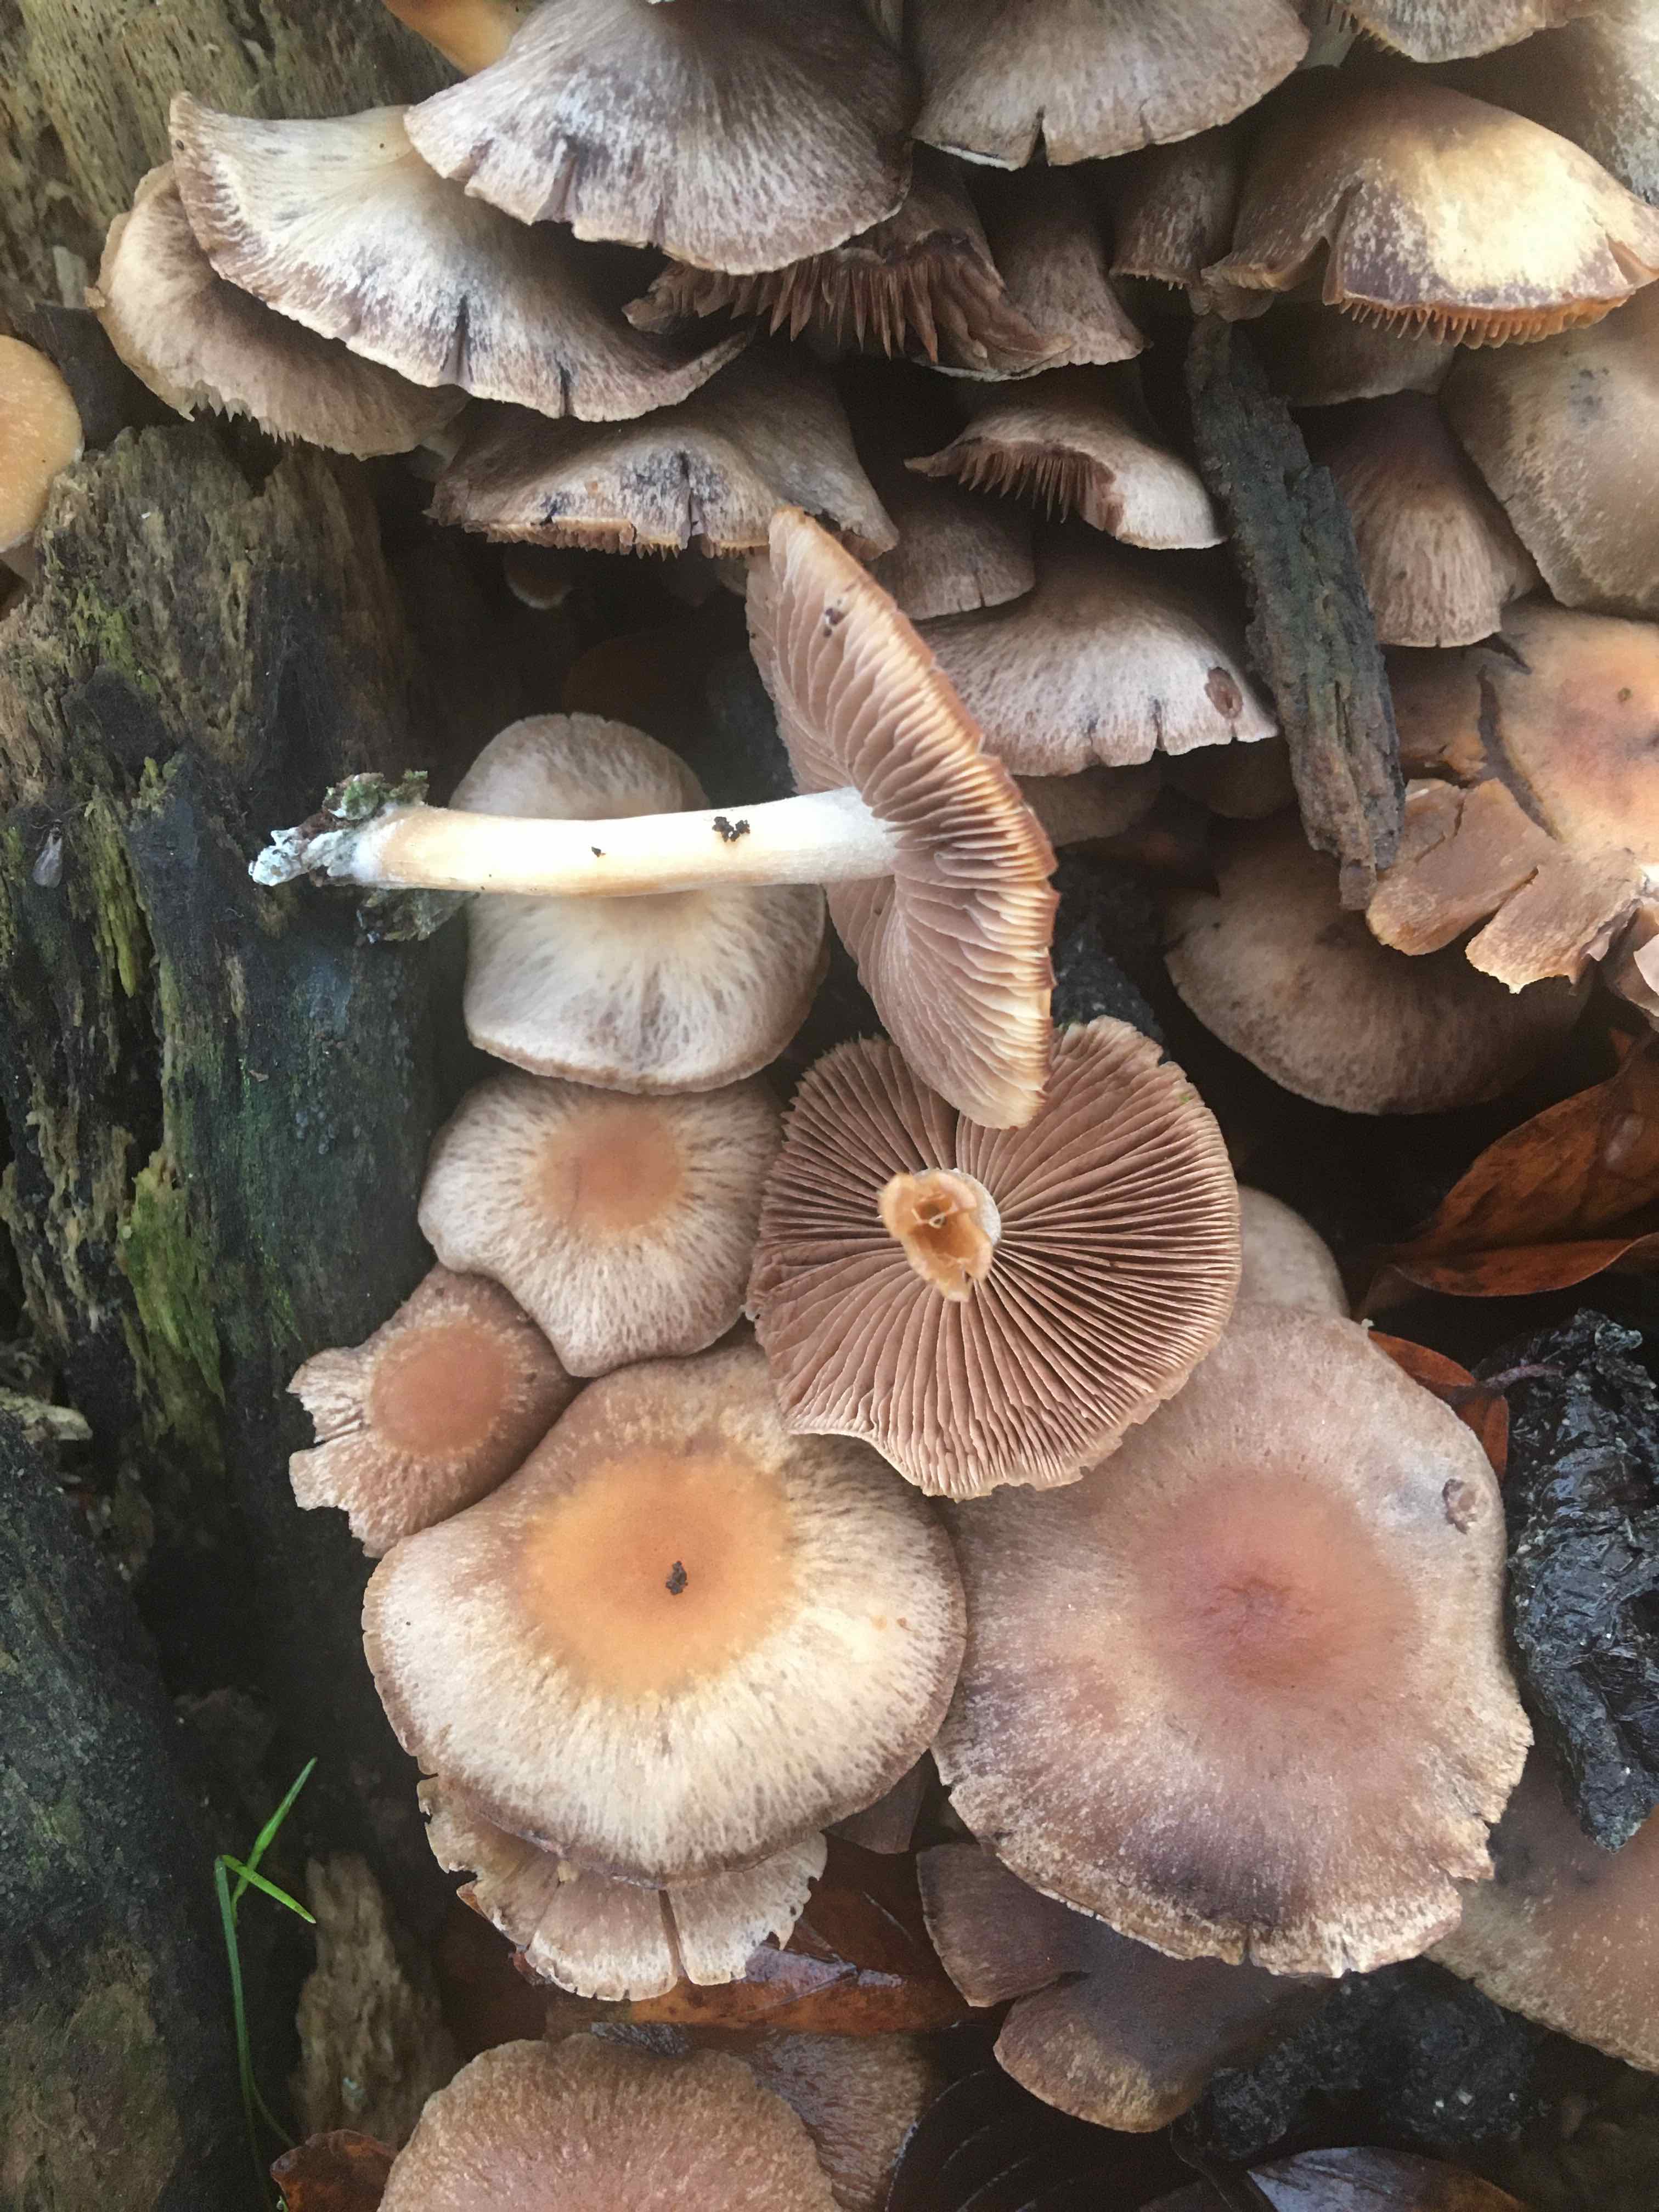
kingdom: Fungi
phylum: Basidiomycota
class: Agaricomycetes
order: Agaricales
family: Psathyrellaceae
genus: Psathyrella
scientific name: Psathyrella piluliformis
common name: lysstokket mørkhat
